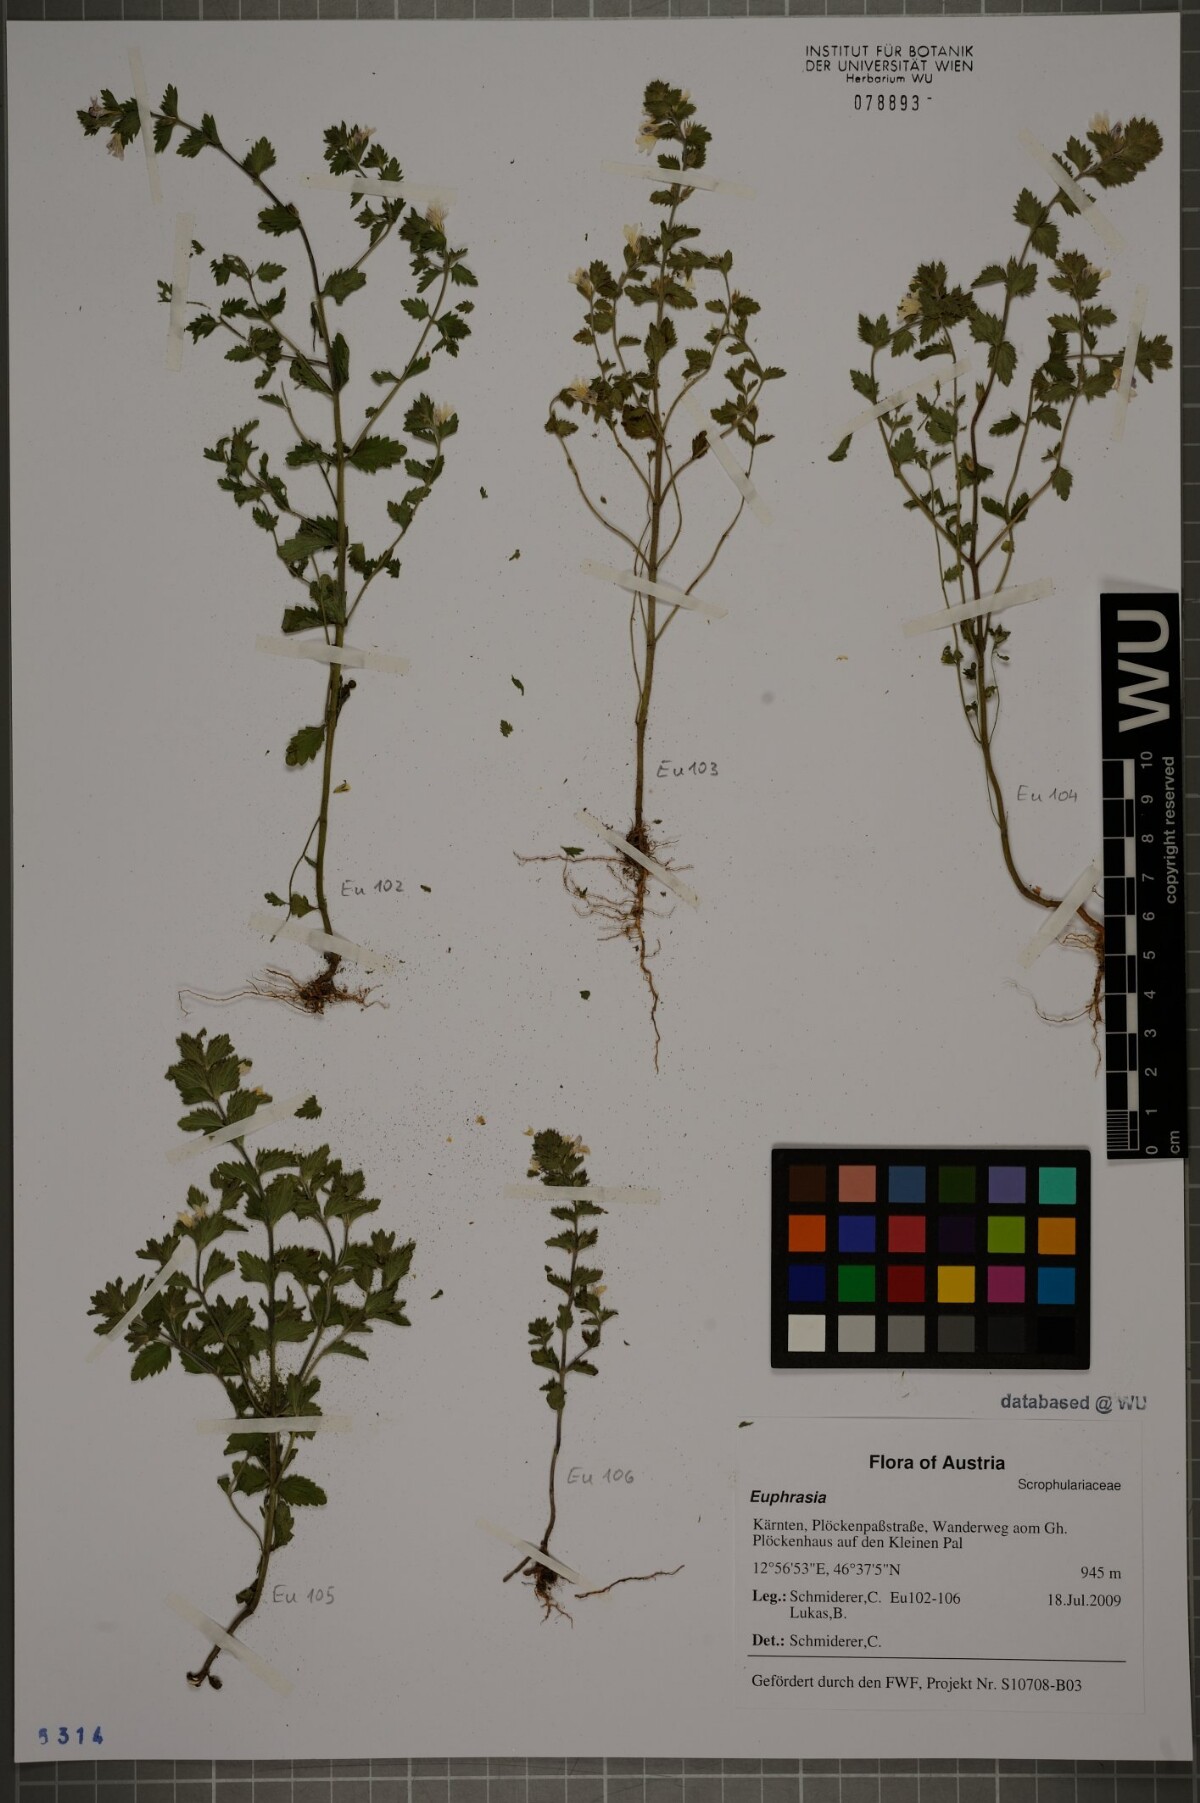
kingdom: Plantae
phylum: Tracheophyta
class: Magnoliopsida
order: Lamiales
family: Orobanchaceae
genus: Euphrasia
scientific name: Euphrasia
